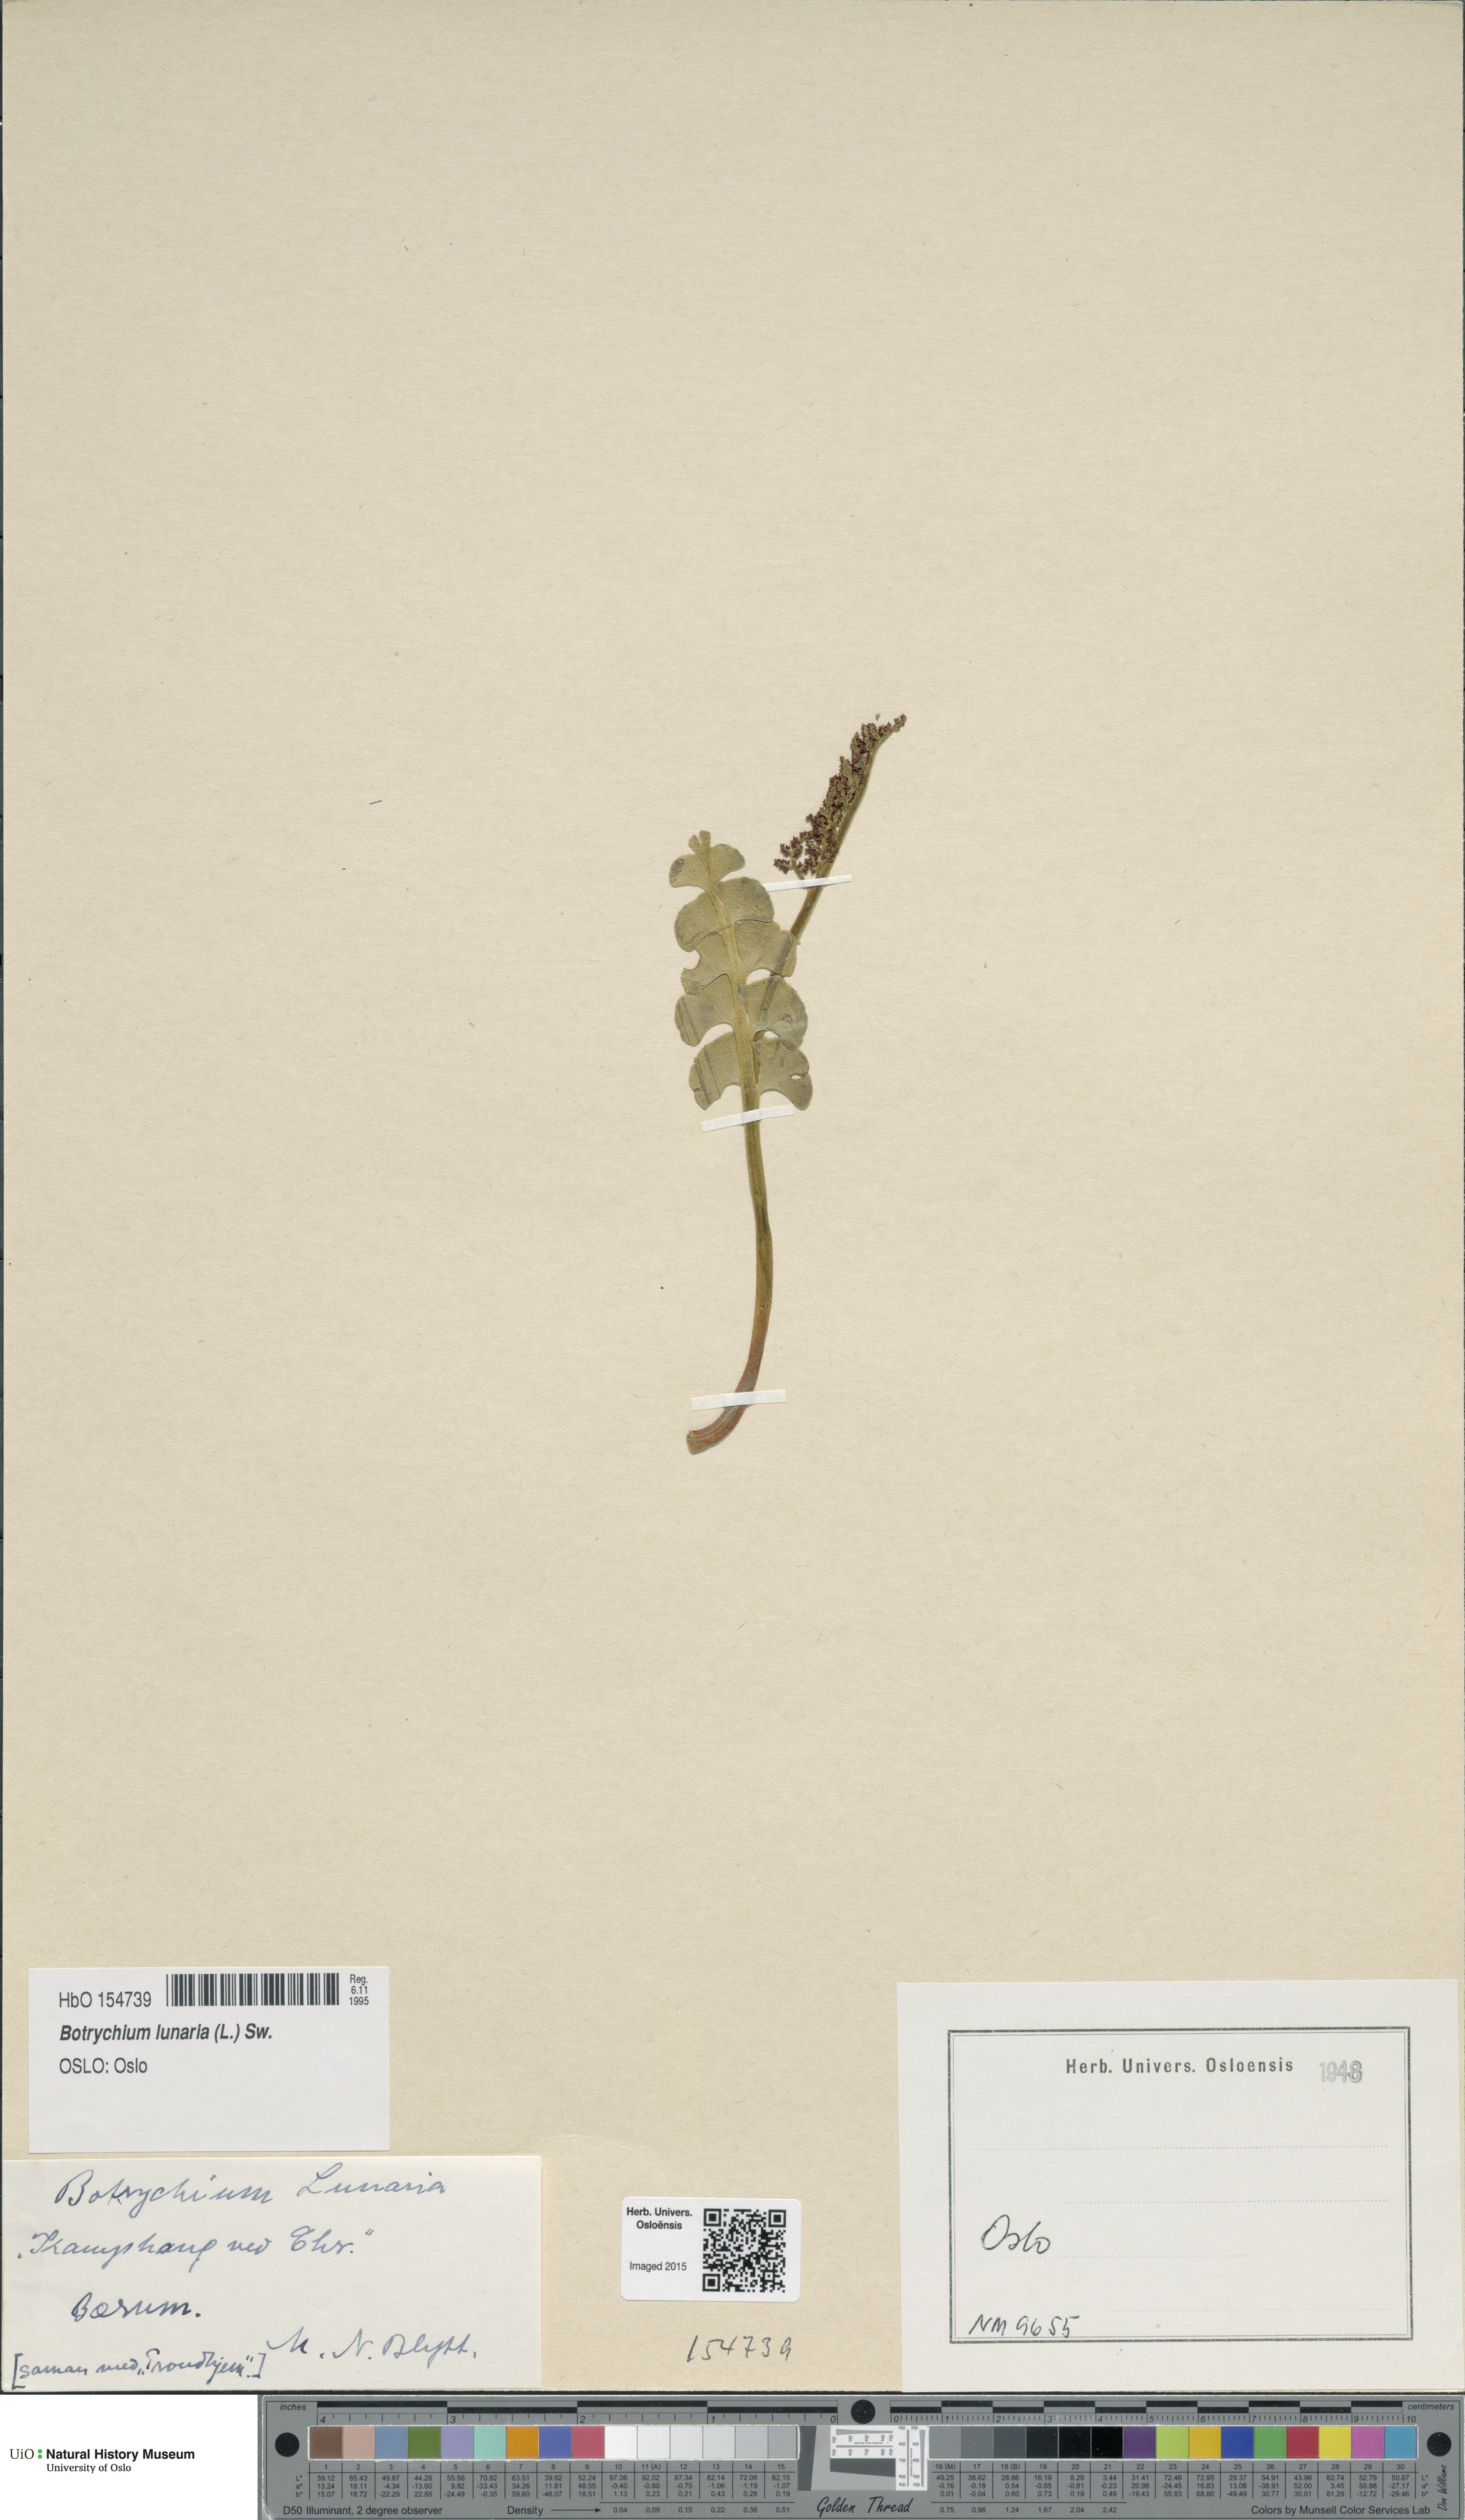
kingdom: Plantae
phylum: Tracheophyta
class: Polypodiopsida
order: Ophioglossales
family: Ophioglossaceae
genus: Botrychium
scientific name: Botrychium lunaria
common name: Moonwort
